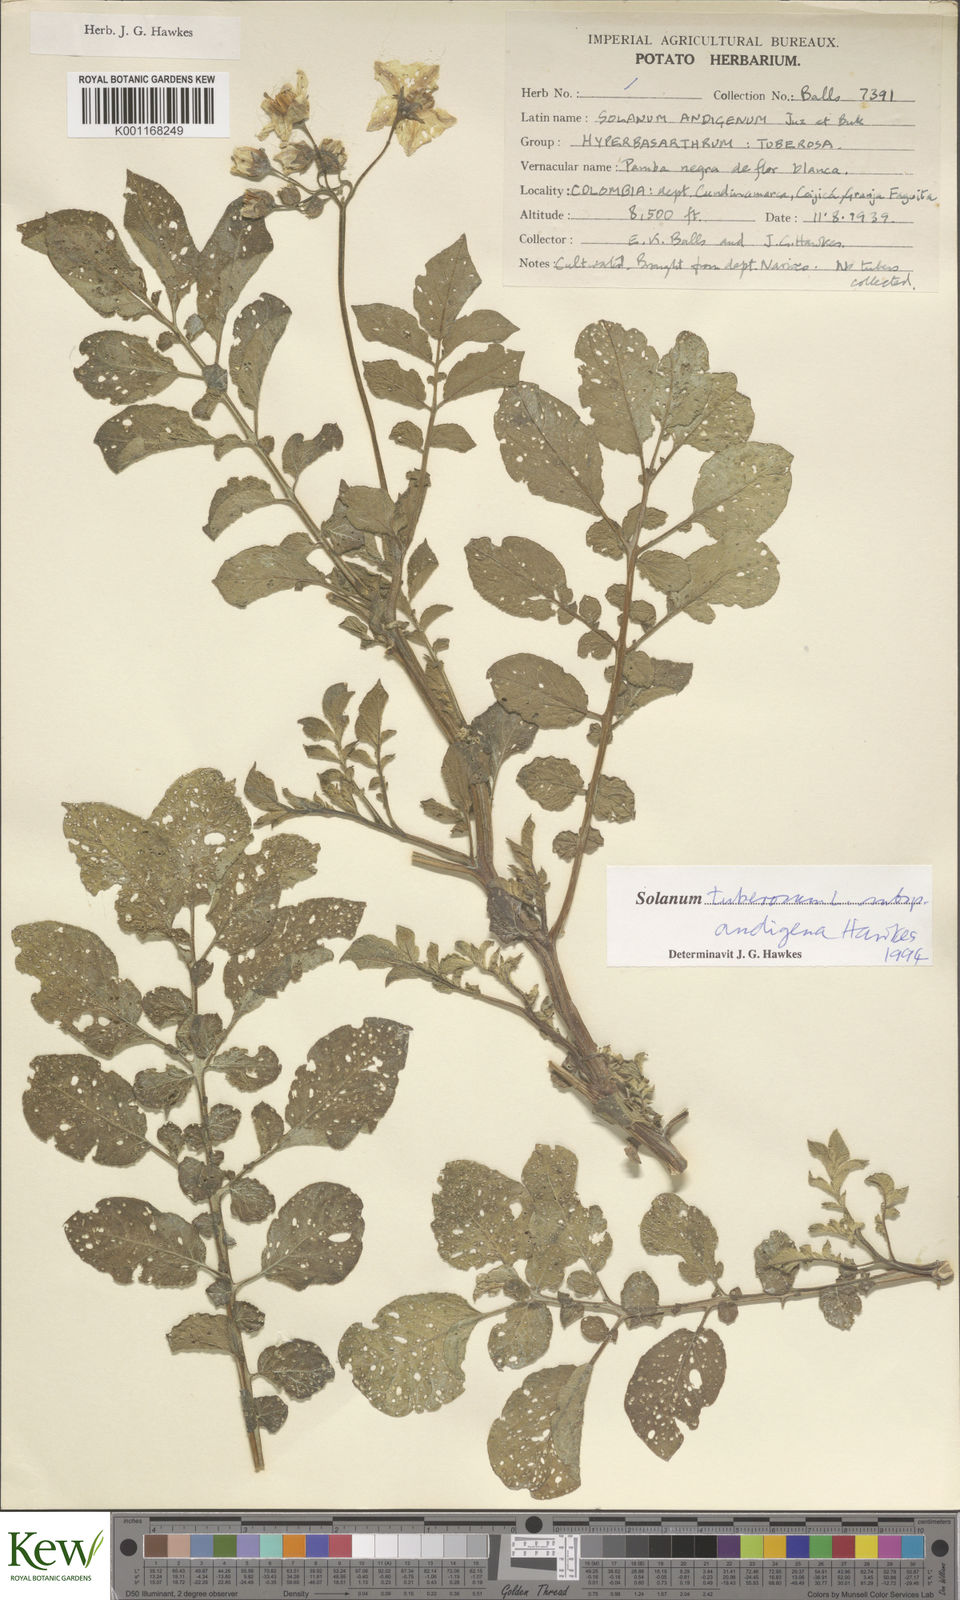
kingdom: Plantae
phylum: Tracheophyta
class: Magnoliopsida
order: Solanales
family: Solanaceae
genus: Solanum
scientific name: Solanum tuberosum
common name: Potato
